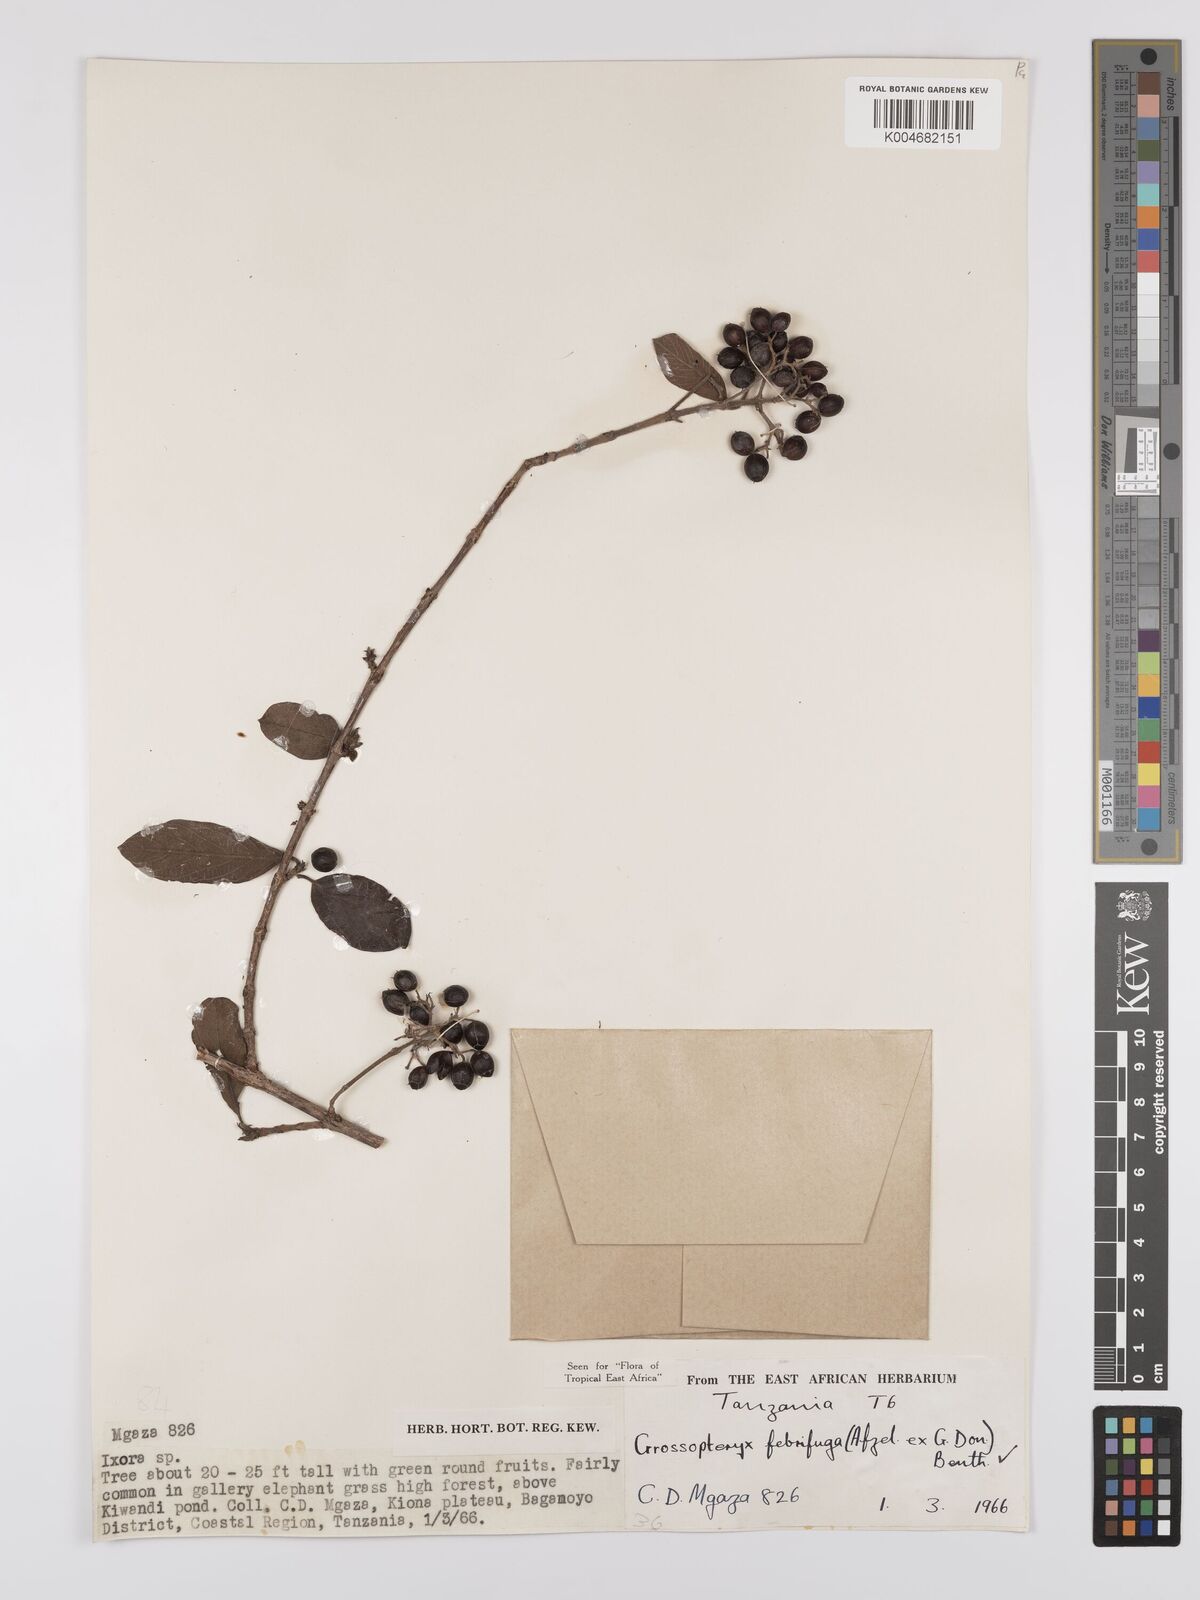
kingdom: Plantae
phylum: Tracheophyta
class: Magnoliopsida
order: Gentianales
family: Rubiaceae
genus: Crossopteryx
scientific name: Crossopteryx febrifuga
